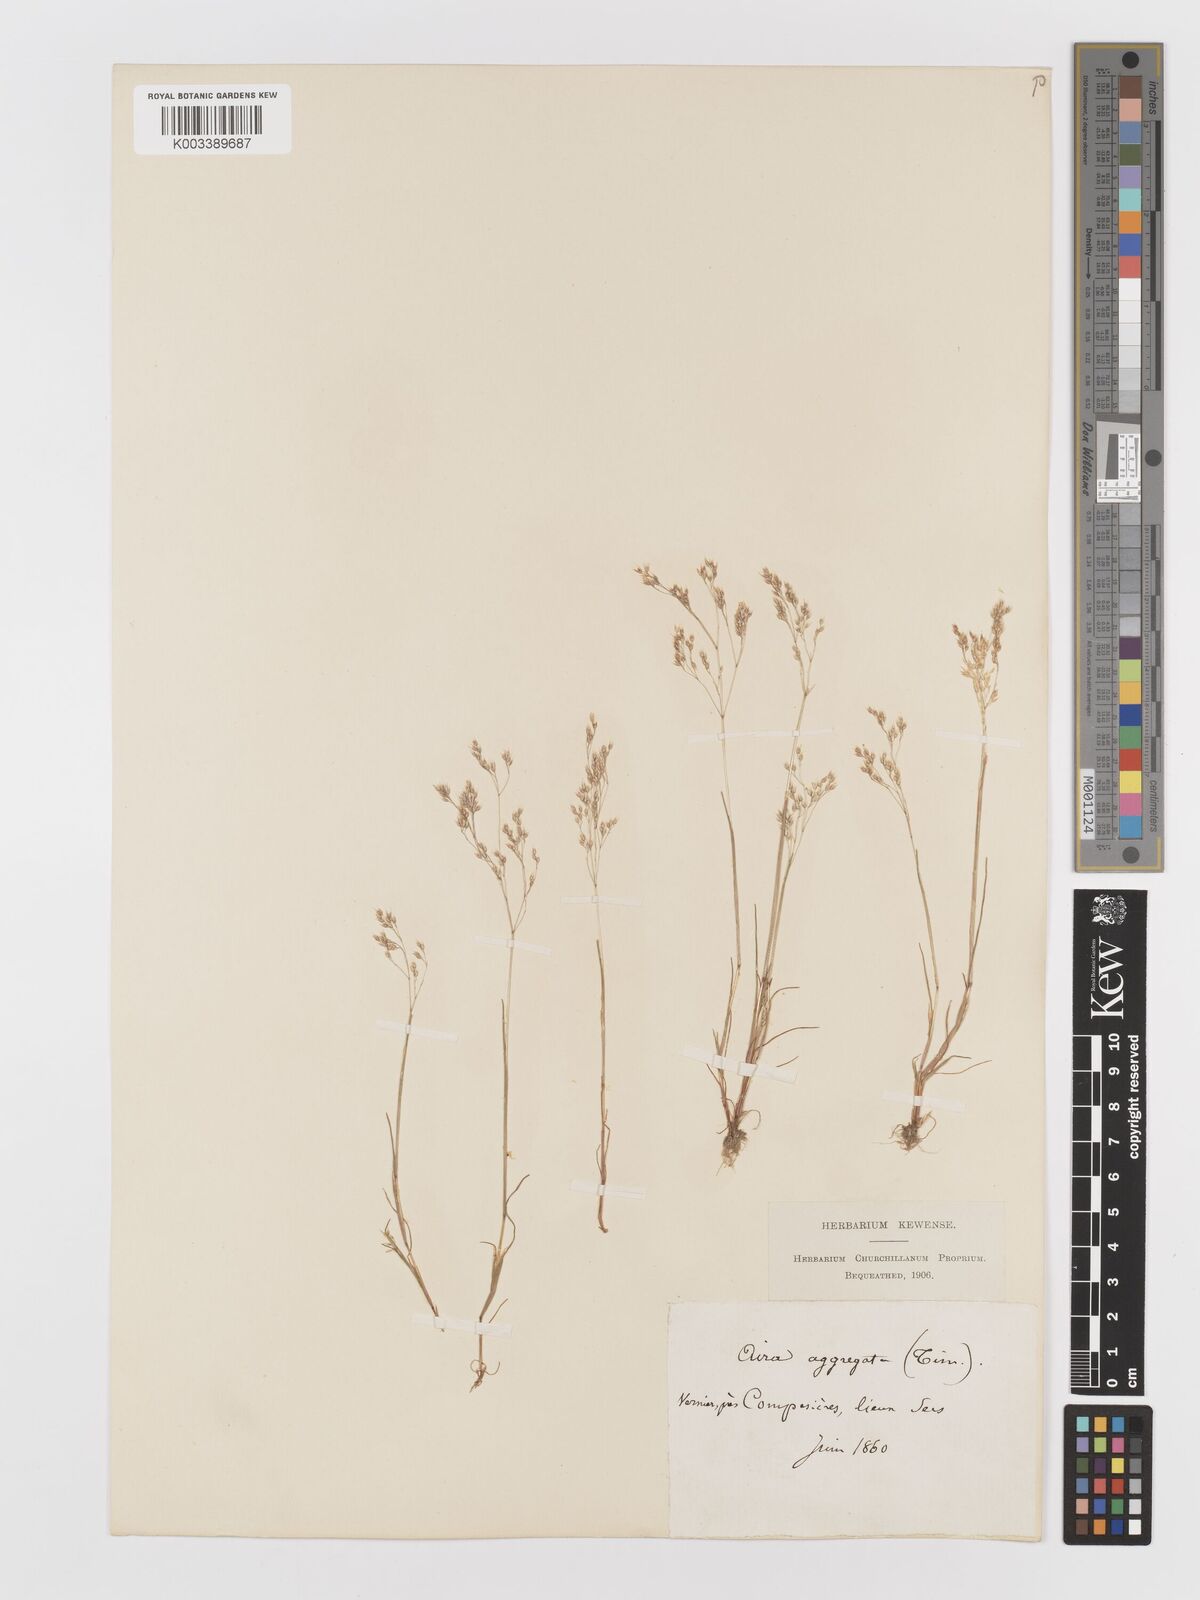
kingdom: Plantae
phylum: Tracheophyta
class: Liliopsida
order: Poales
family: Poaceae
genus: Aira
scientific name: Aira caryophyllea
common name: Silver hairgrass
